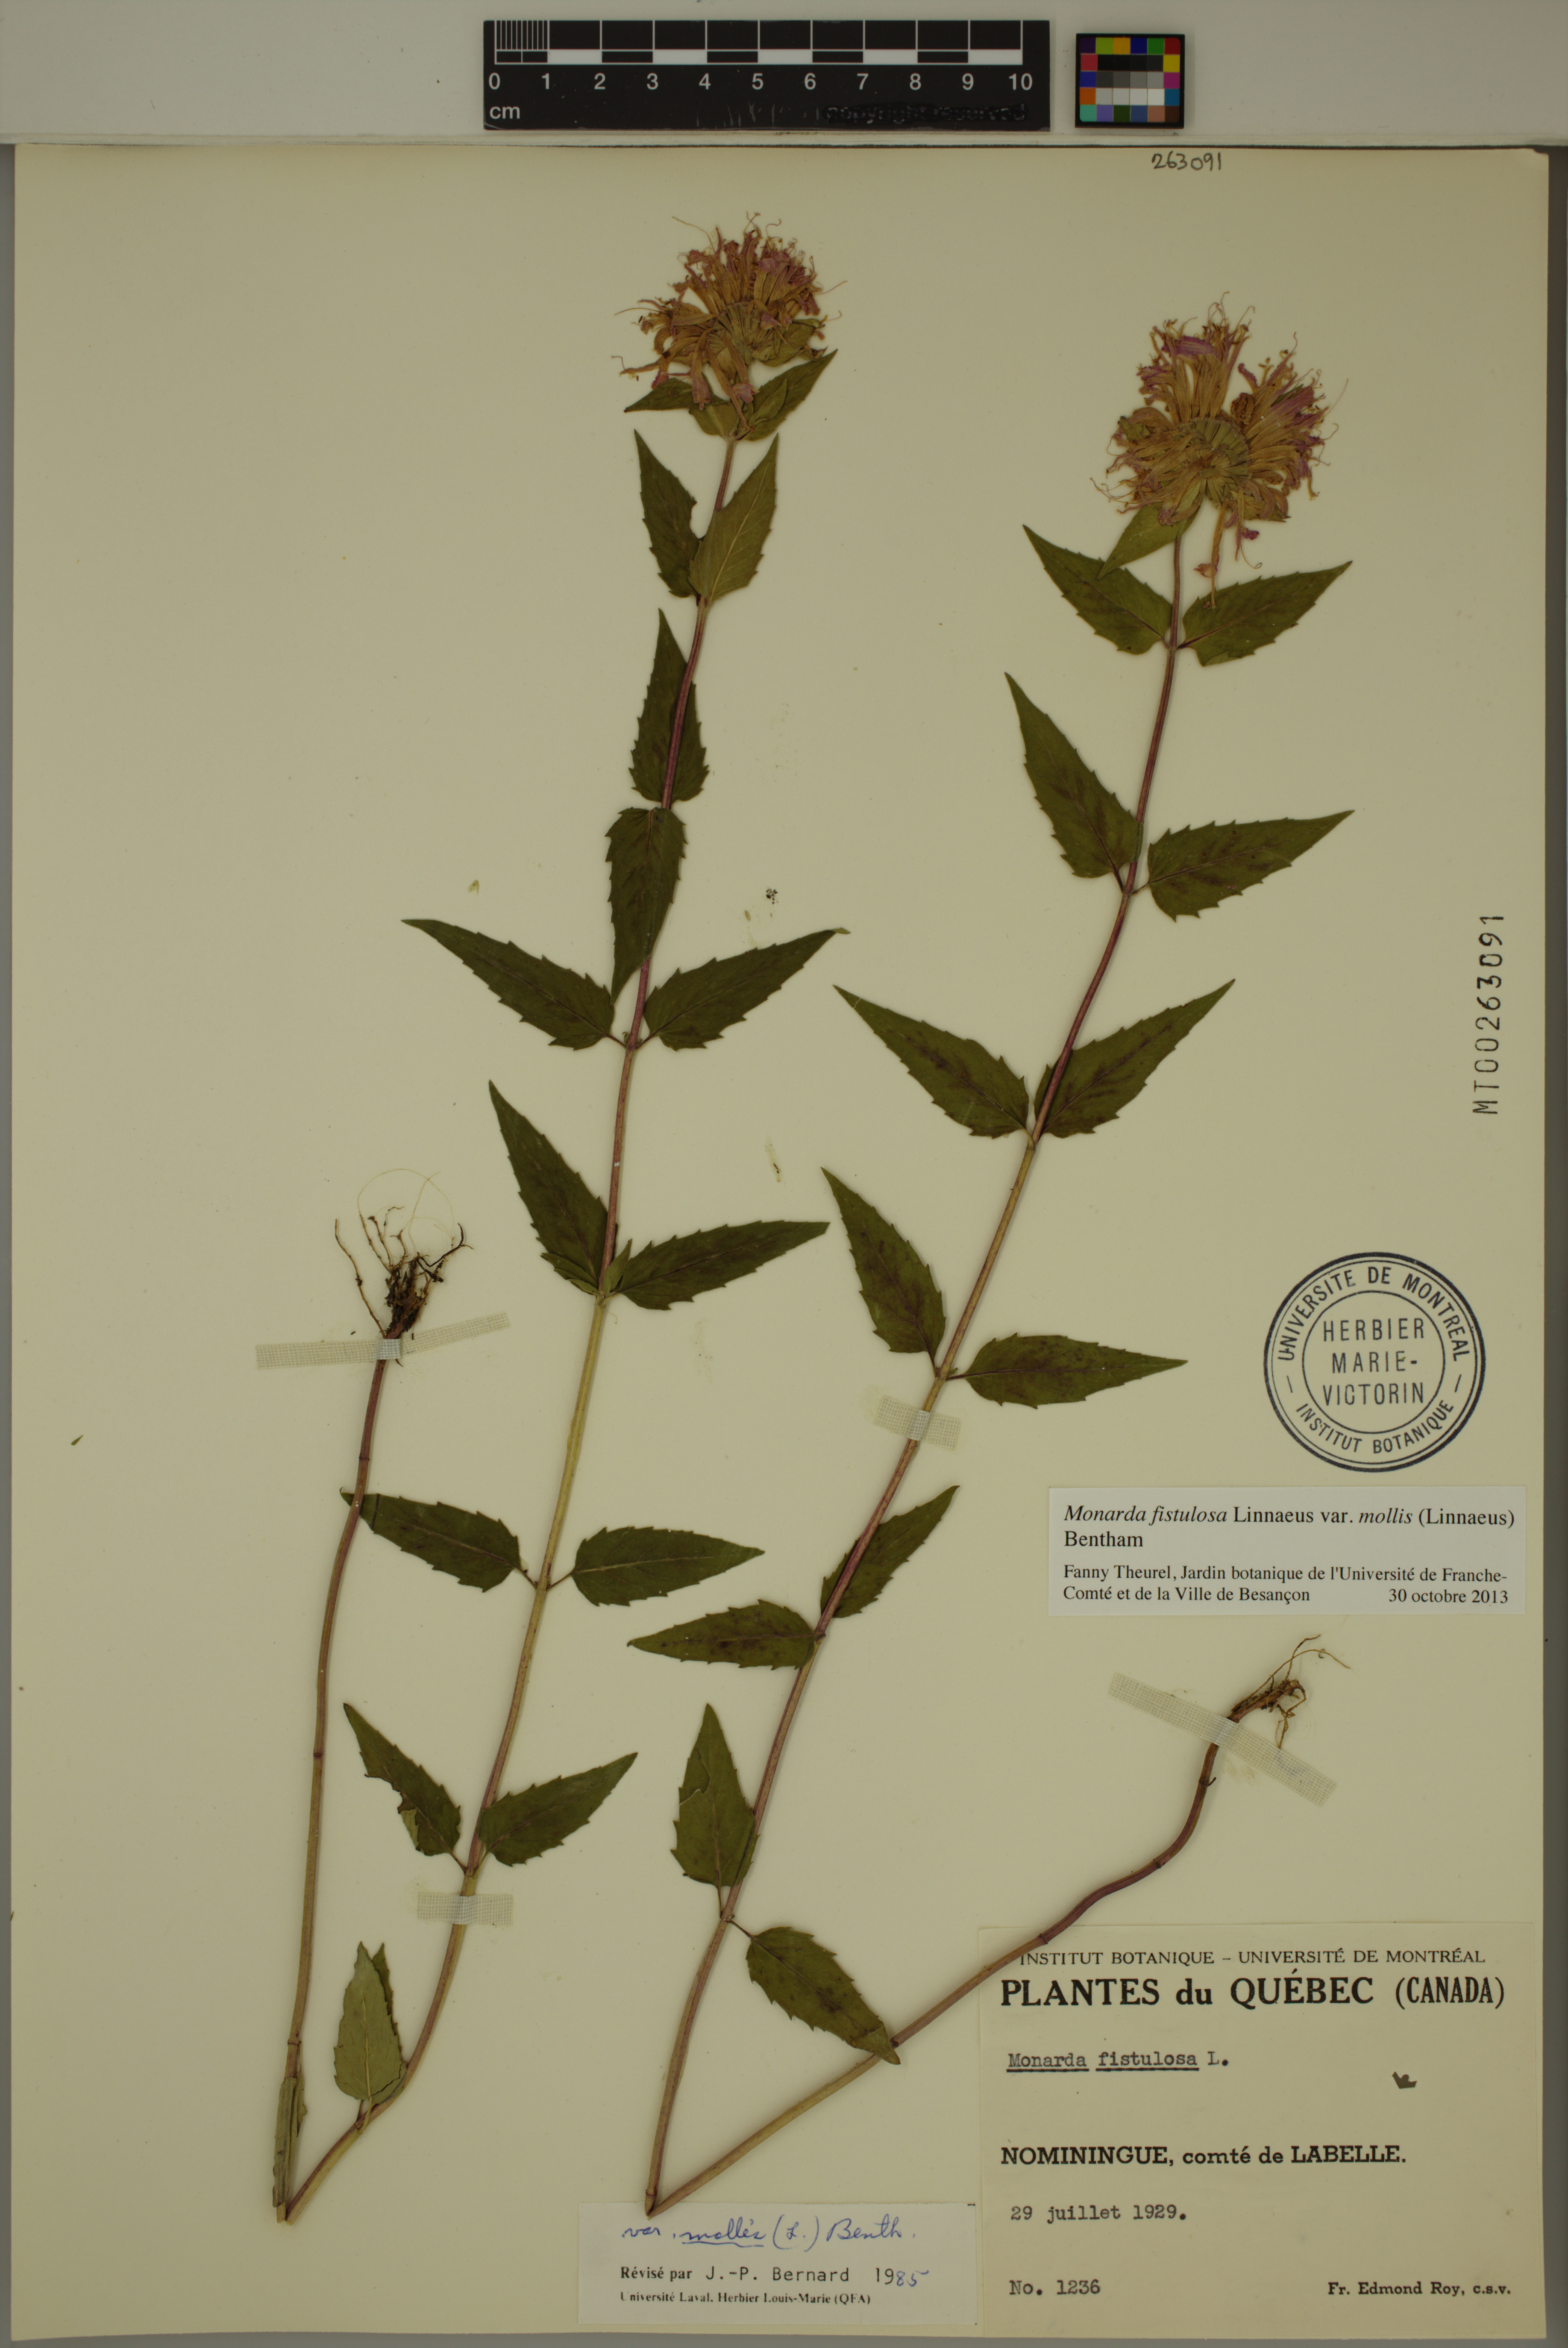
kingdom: Plantae
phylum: Tracheophyta
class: Magnoliopsida
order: Lamiales
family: Lamiaceae
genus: Monarda
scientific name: Monarda fistulosa
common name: Purple beebalm
